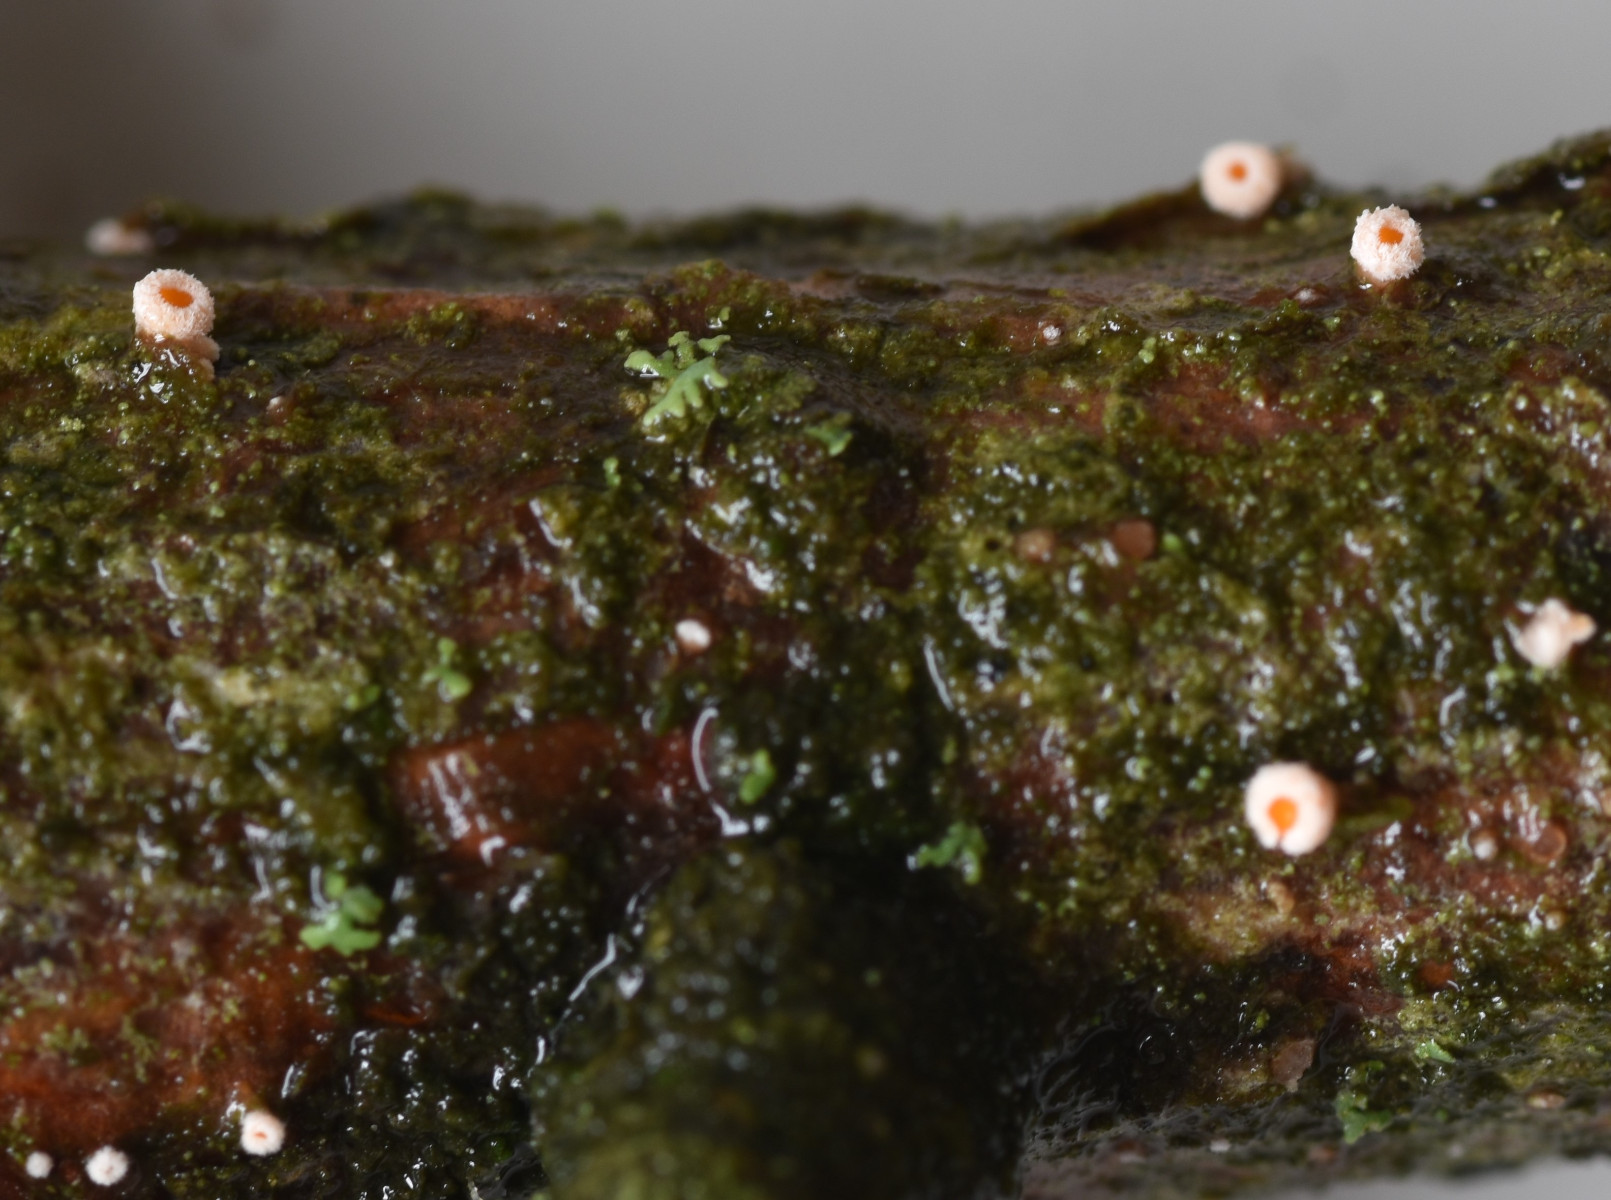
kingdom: Fungi
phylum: Ascomycota
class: Leotiomycetes
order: Helotiales
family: Lachnaceae
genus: Lachnellula
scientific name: Lachnellula occidentalis
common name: Larch disco
